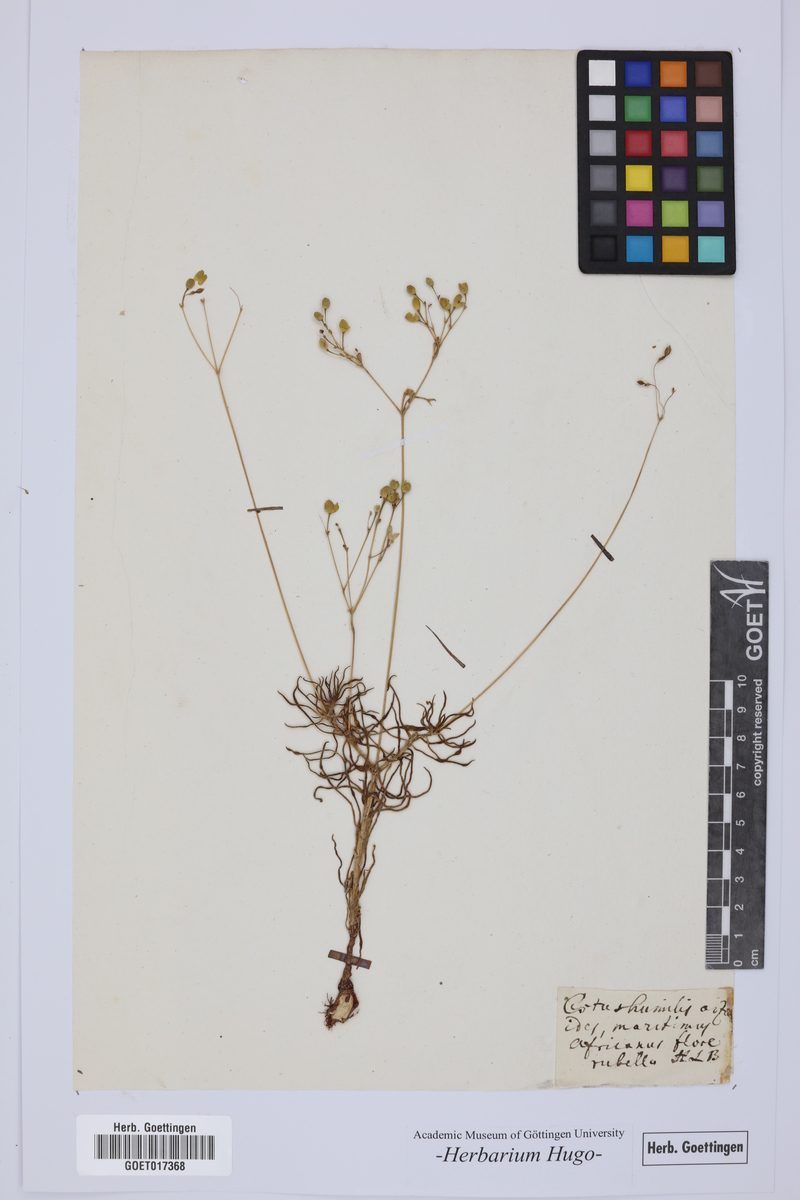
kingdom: Plantae
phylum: Tracheophyta
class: Magnoliopsida
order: Malvales
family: Cistaceae
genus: Cistus
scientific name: Cistus
